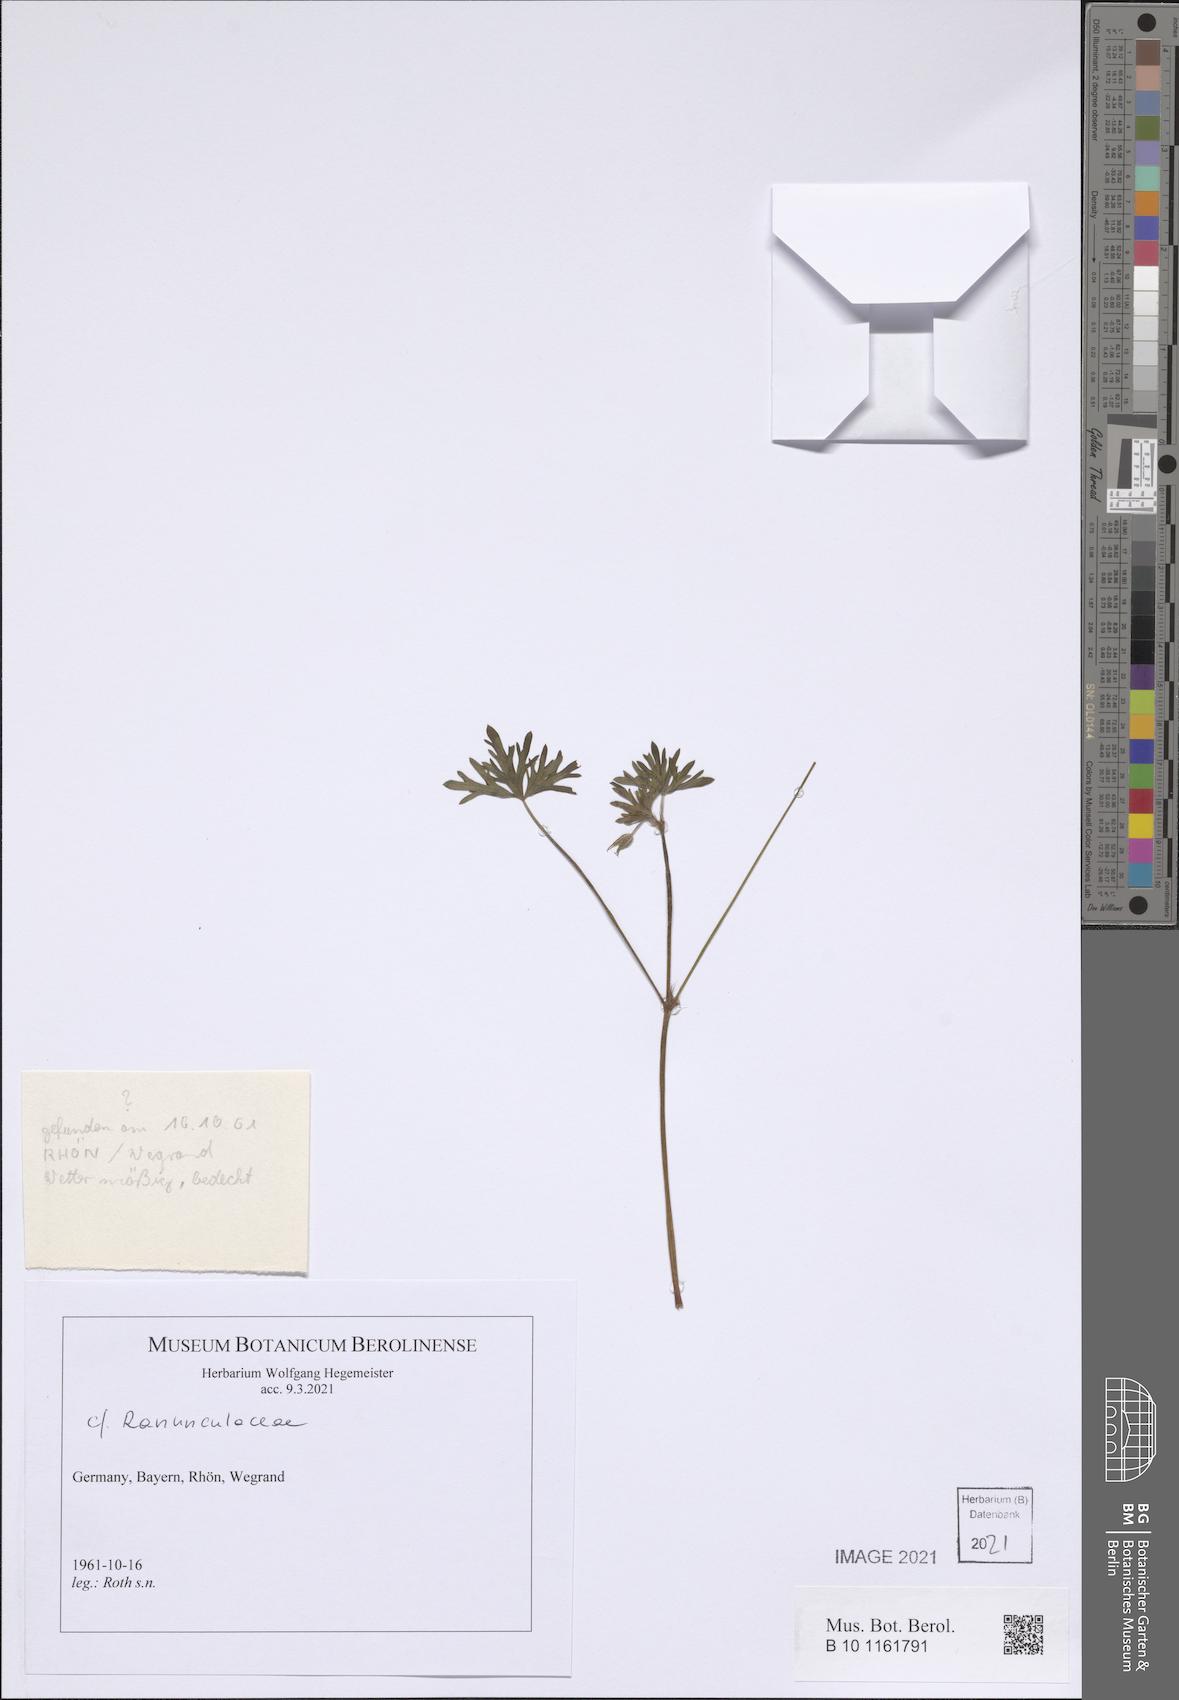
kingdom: Plantae
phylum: Tracheophyta
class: Magnoliopsida
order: Geraniales
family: Geraniaceae
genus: Geranium
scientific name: Geranium columbinum
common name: Long-stalked crane's-bill
